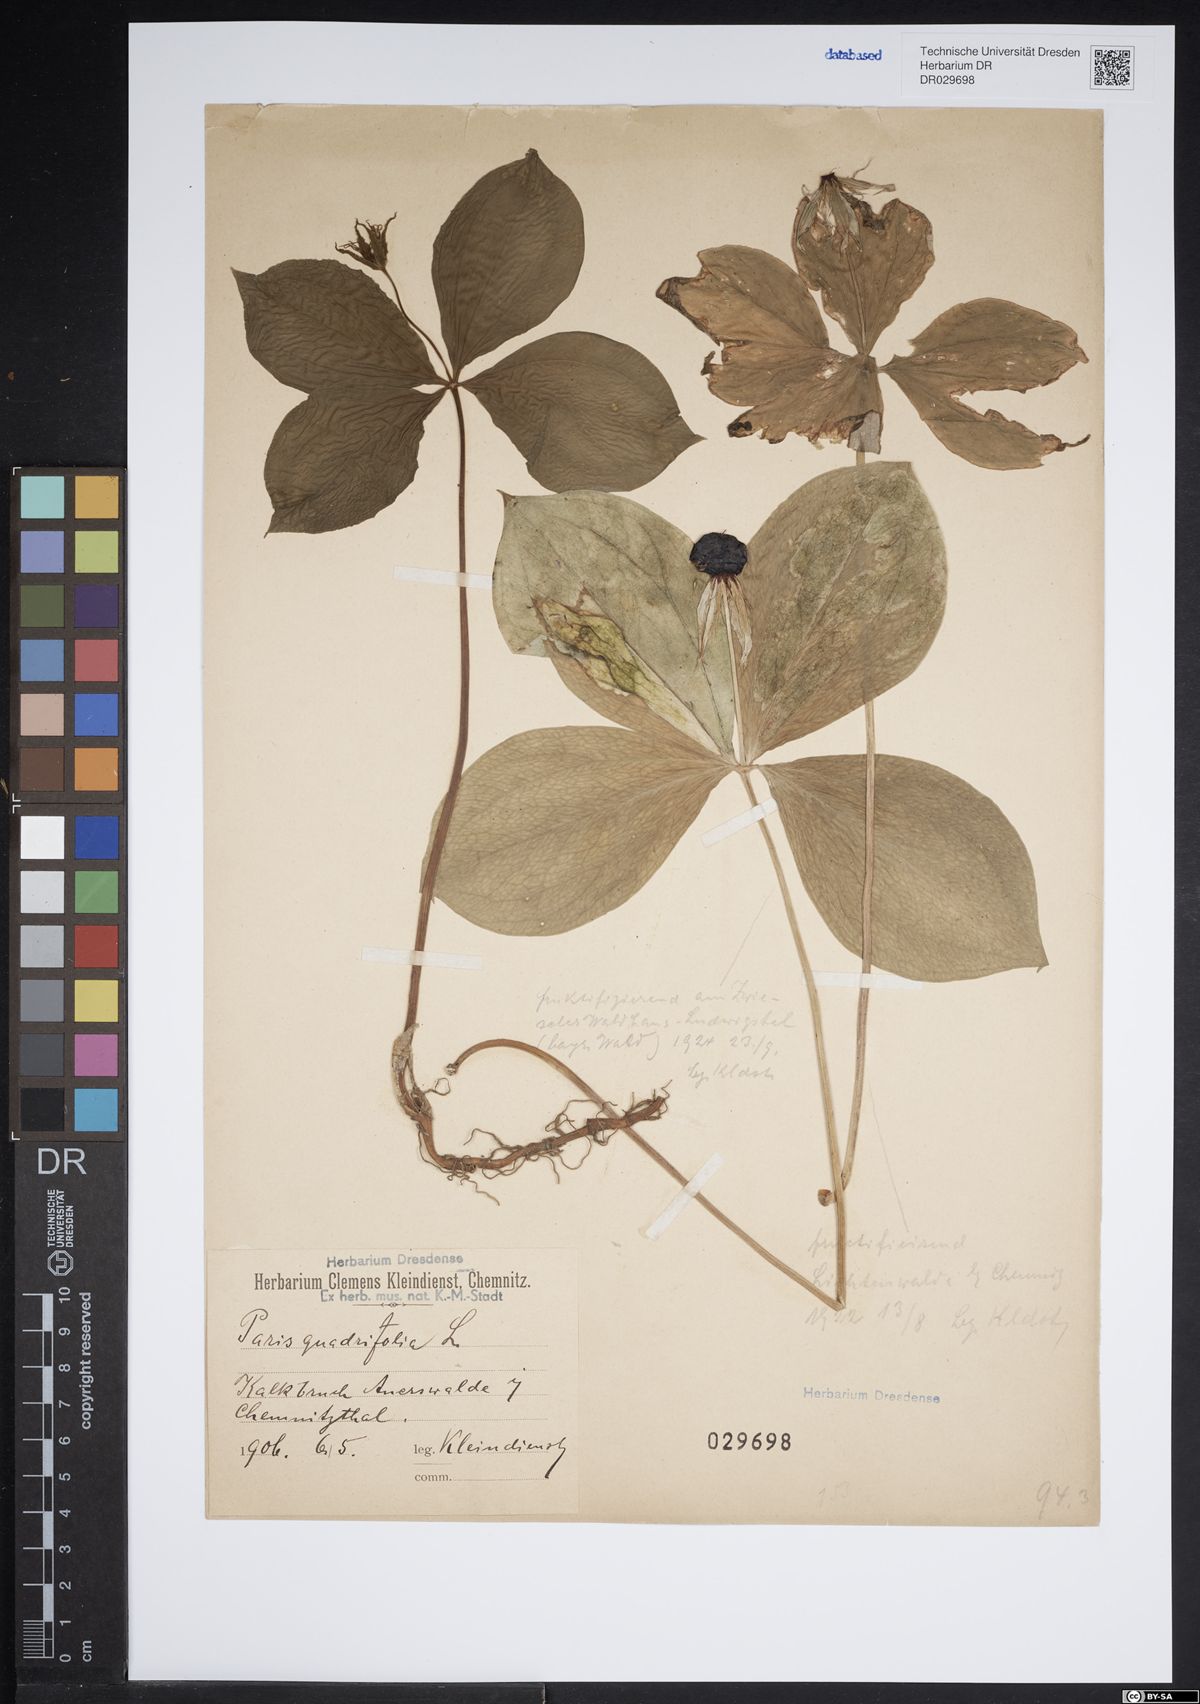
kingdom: Plantae
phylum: Tracheophyta
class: Liliopsida
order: Liliales
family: Melanthiaceae
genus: Paris
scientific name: Paris quadrifolia
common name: Herb-paris
